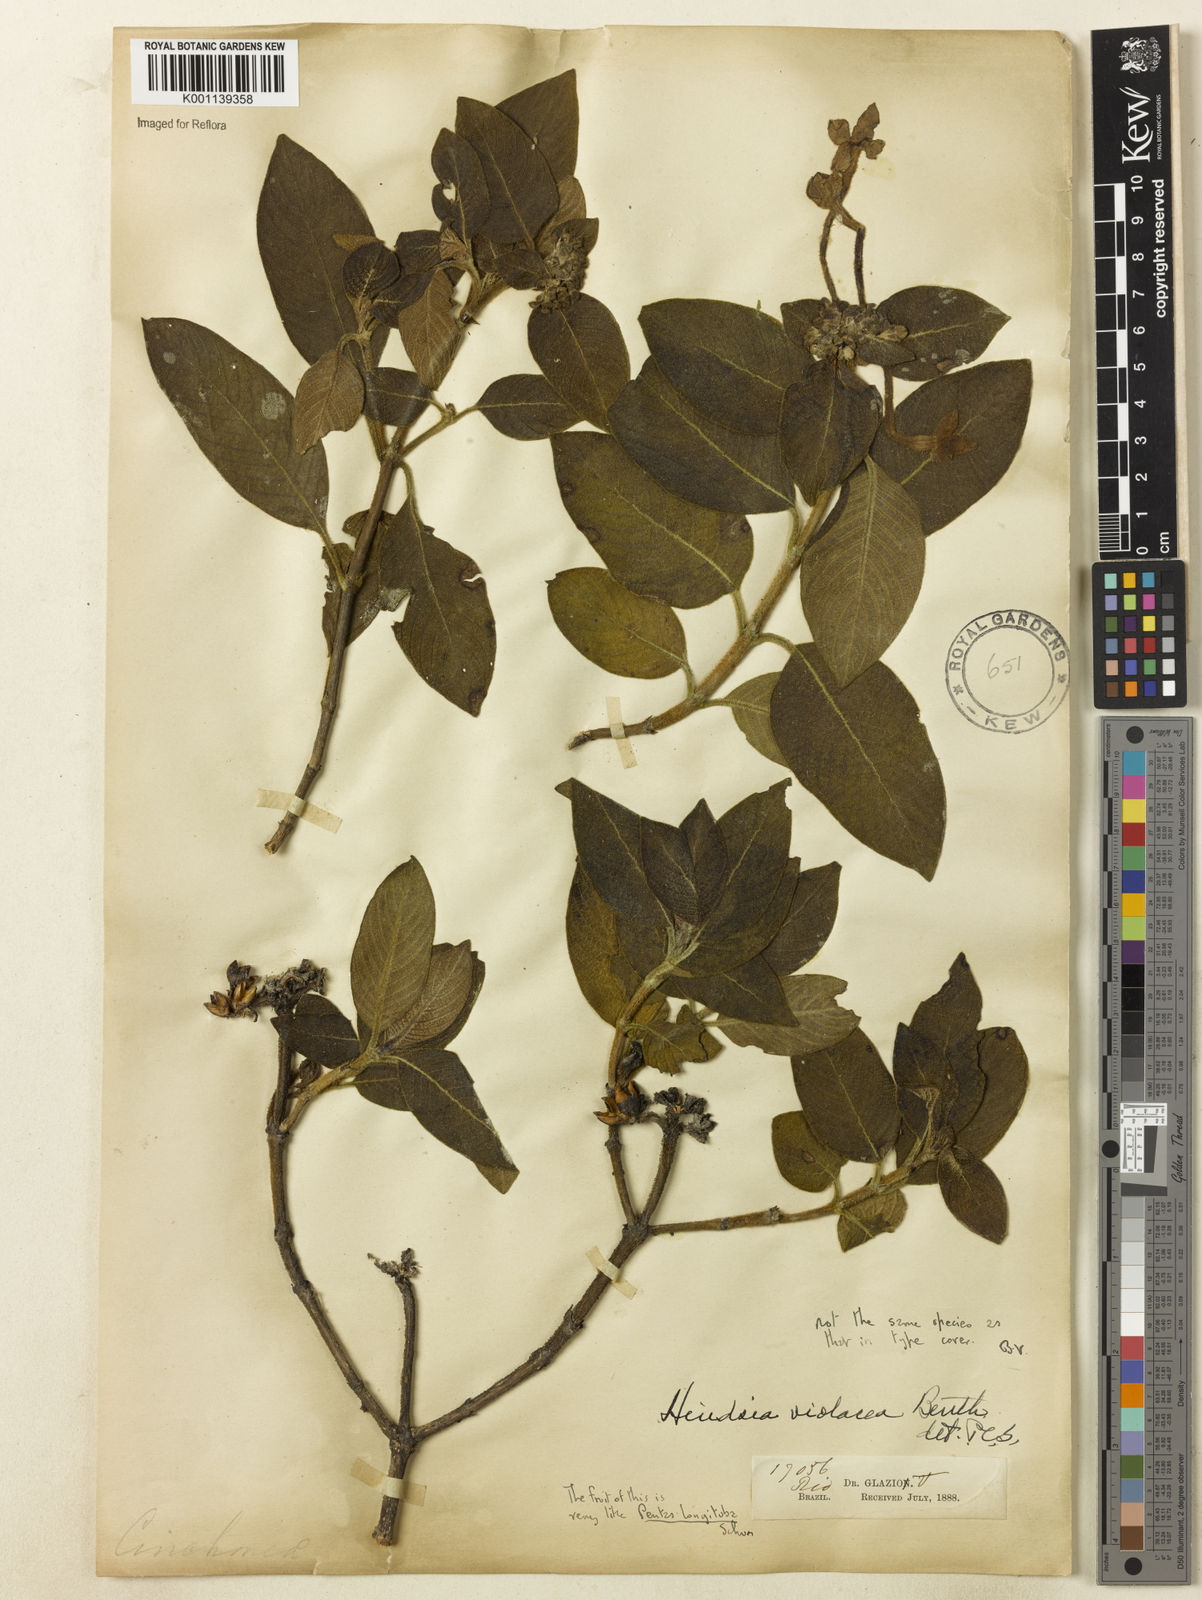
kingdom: Plantae
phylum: Tracheophyta
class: Magnoliopsida
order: Gentianales
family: Rubiaceae
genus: Hindsia
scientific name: Hindsia
